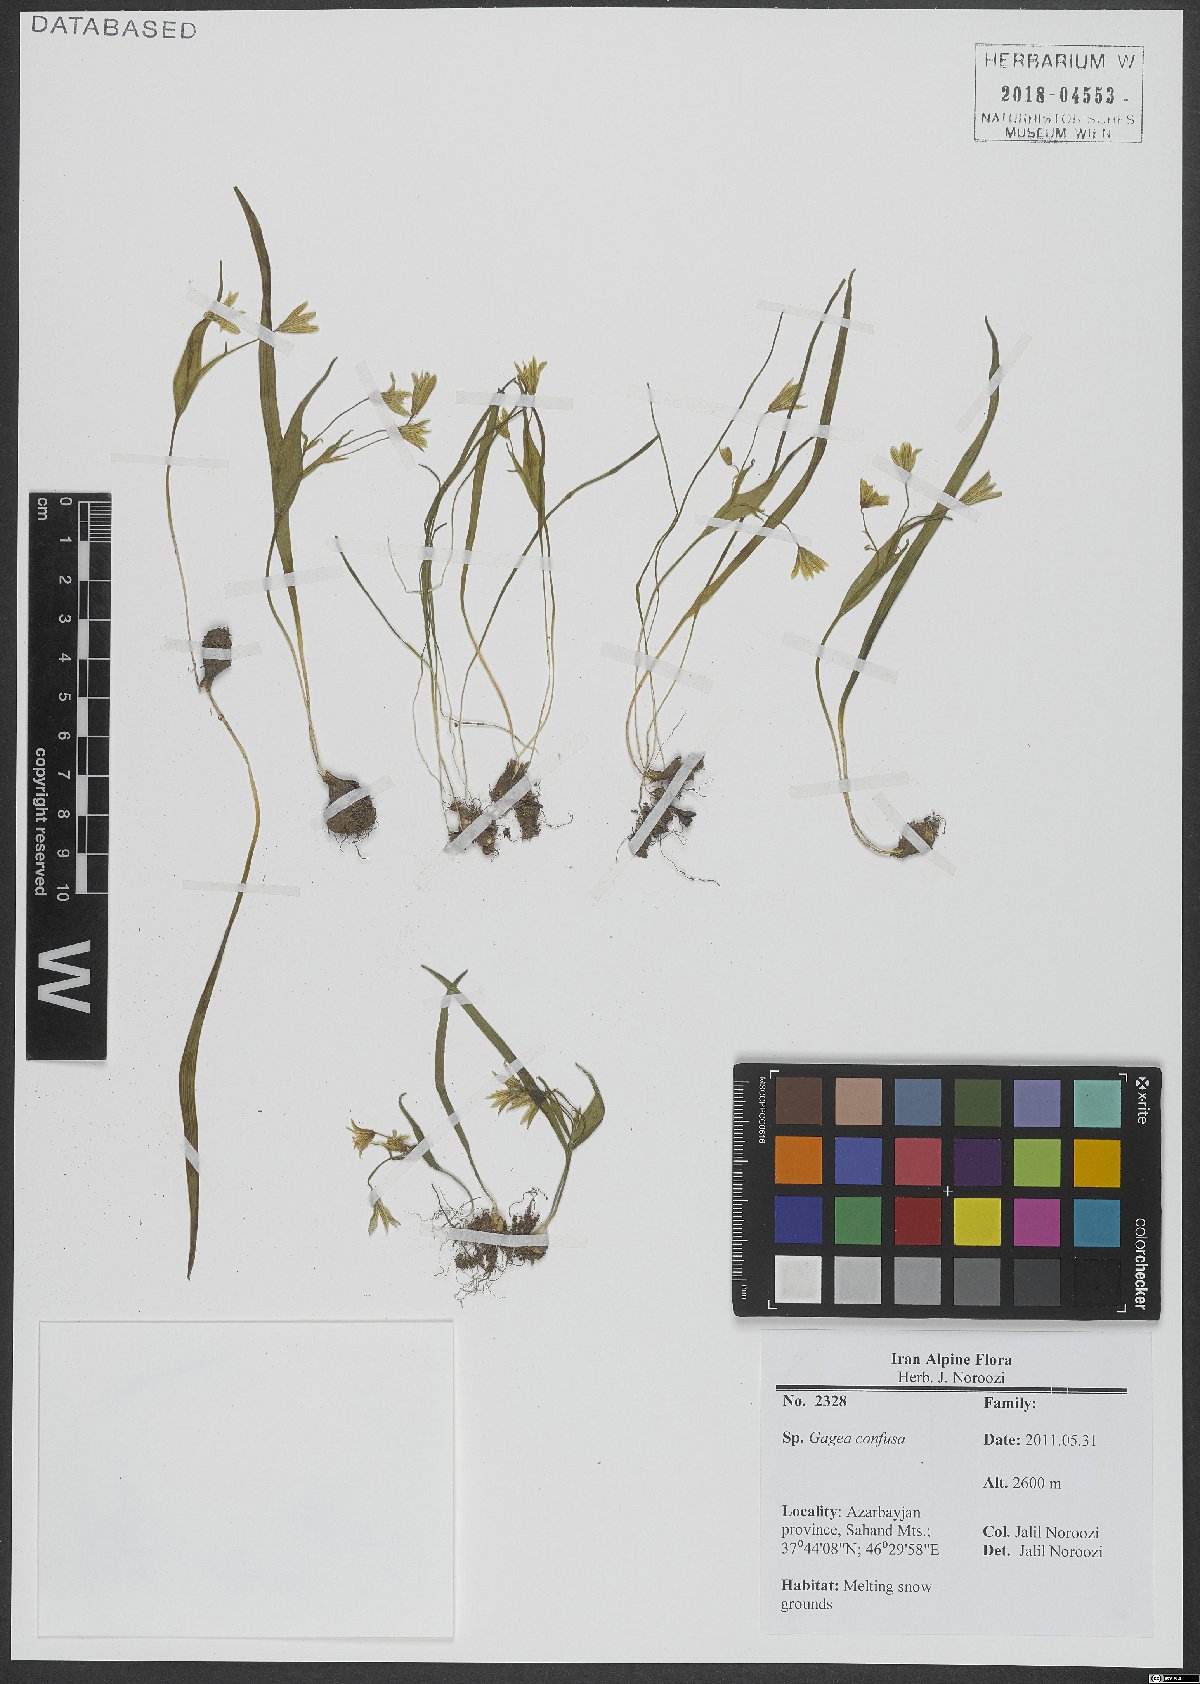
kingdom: Plantae
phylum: Tracheophyta
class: Liliopsida
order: Liliales
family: Liliaceae
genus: Gagea
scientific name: Gagea confusa
